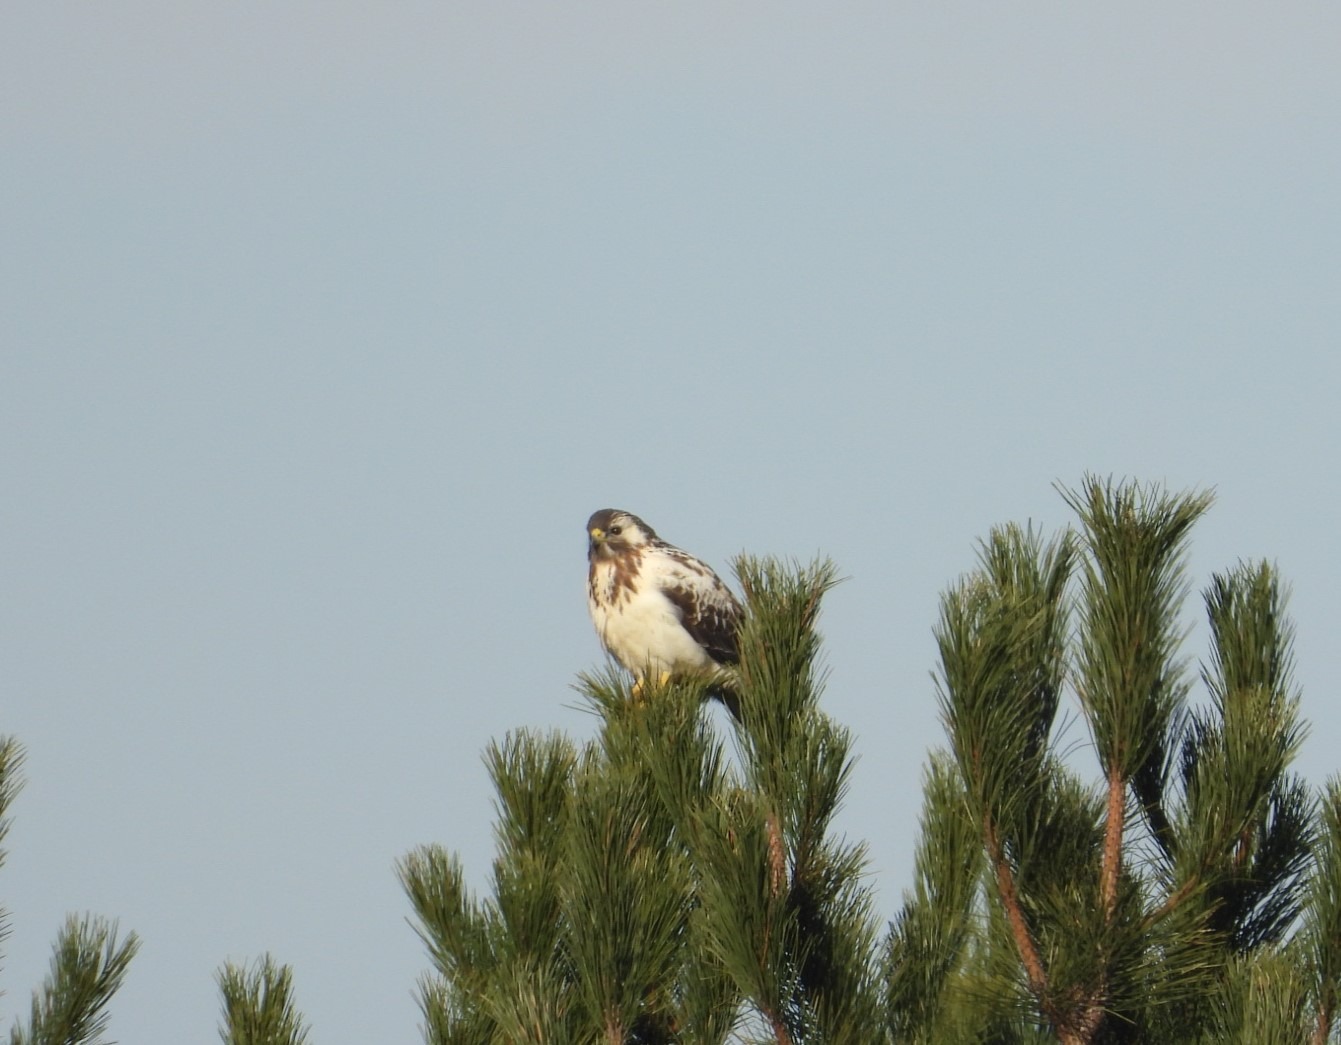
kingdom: Animalia
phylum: Chordata
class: Aves
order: Accipitriformes
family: Accipitridae
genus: Buteo
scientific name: Buteo buteo
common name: Musvåge
